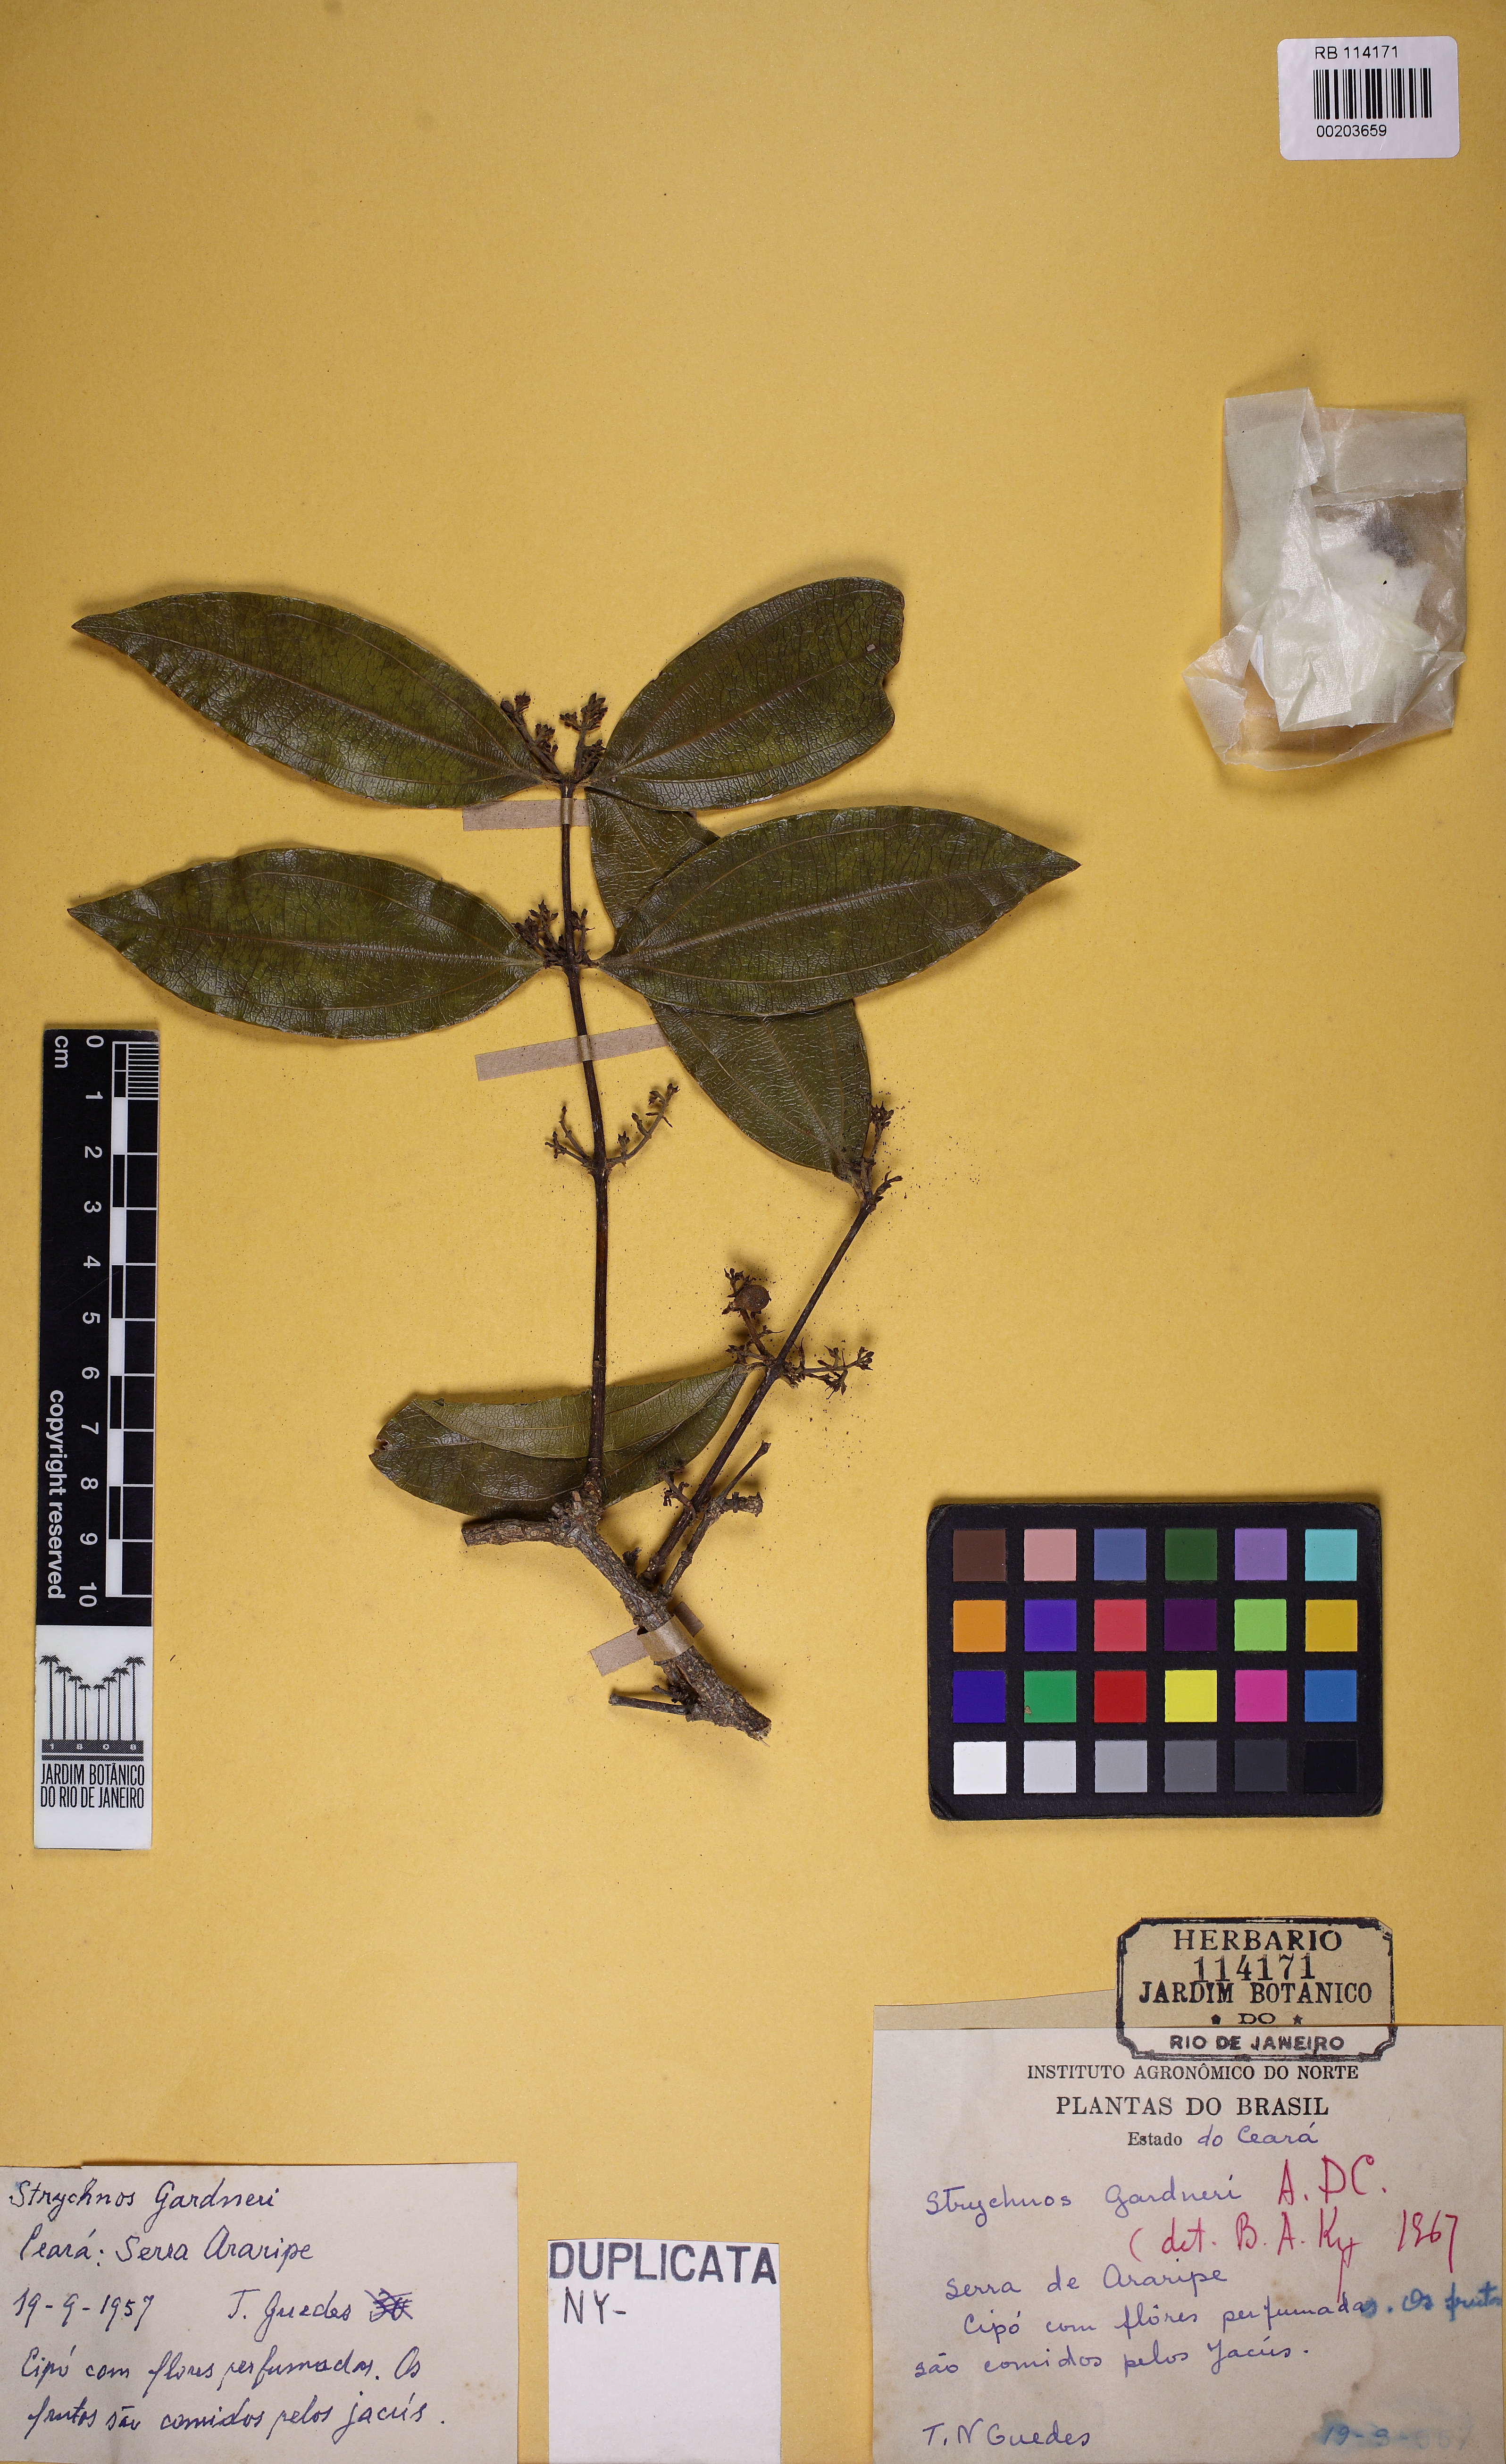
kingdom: Plantae
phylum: Tracheophyta
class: Magnoliopsida
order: Gentianales
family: Loganiaceae
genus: Strychnos
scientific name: Strychnos gardneri
